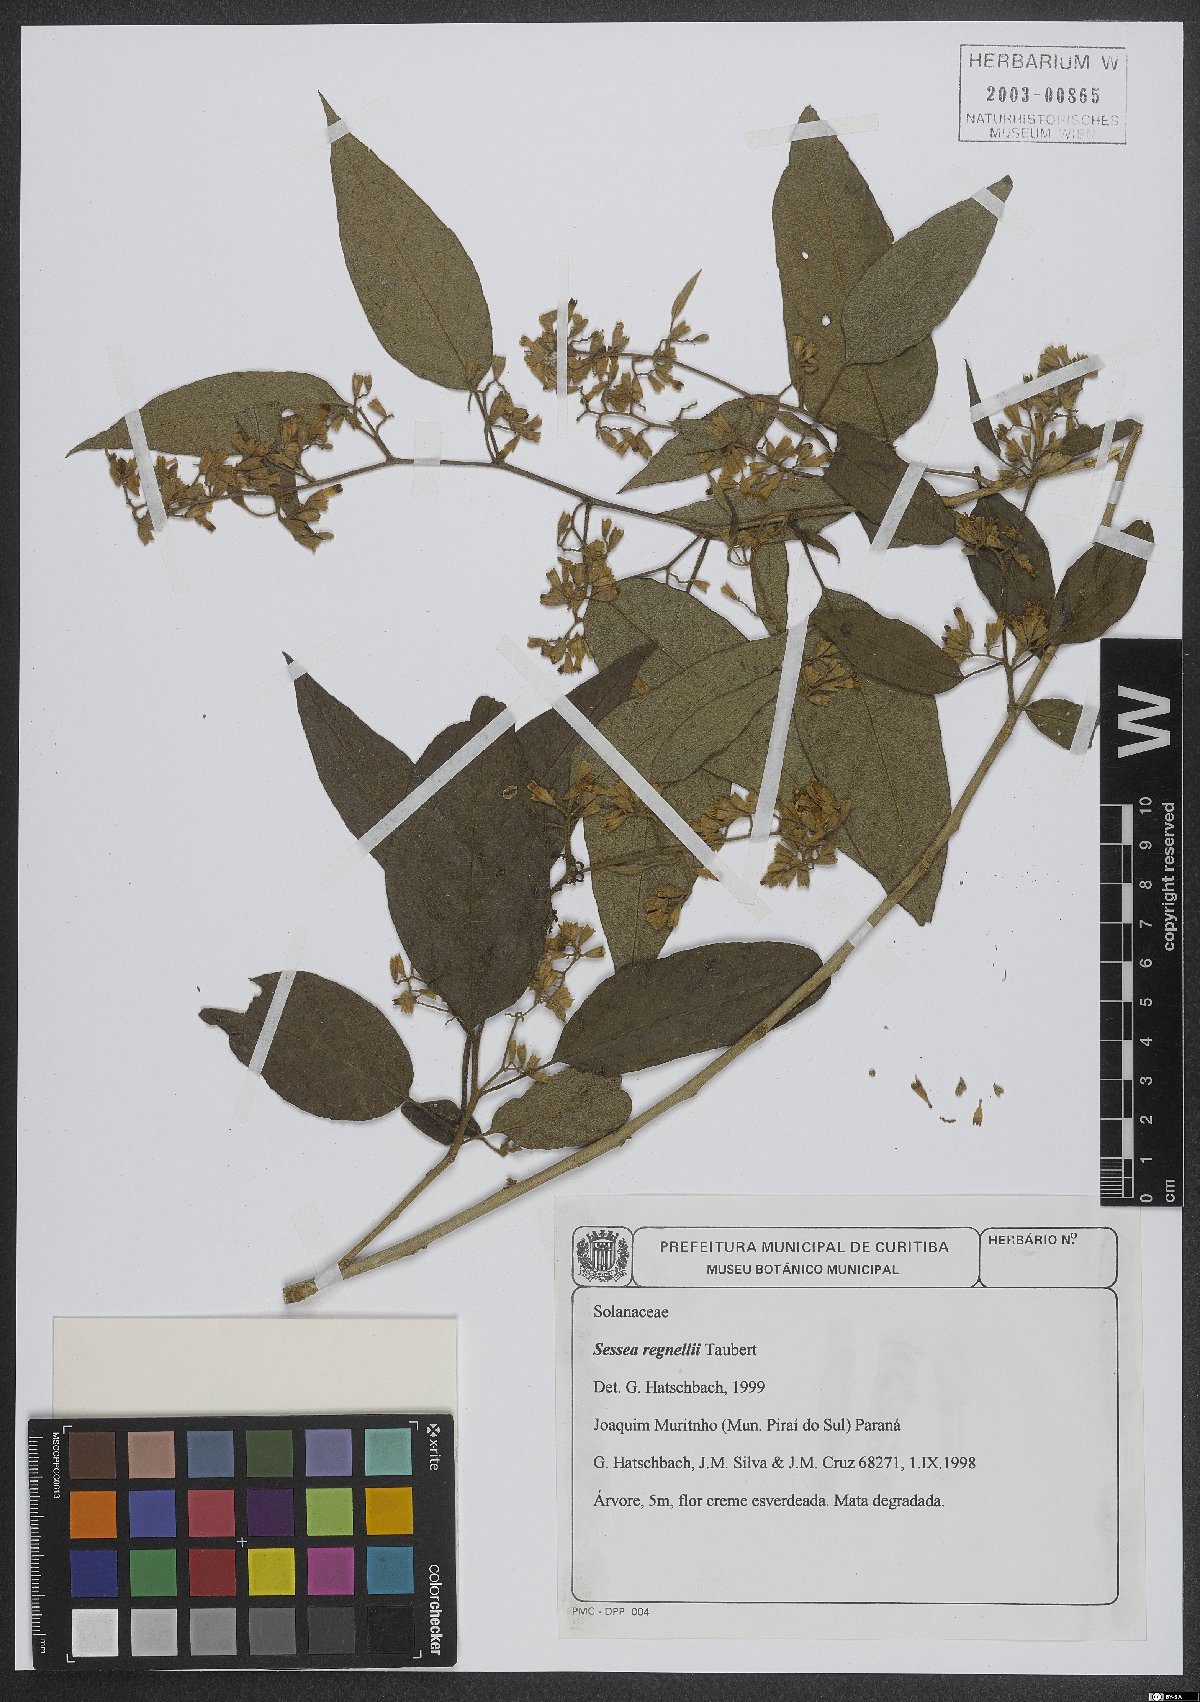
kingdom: Plantae
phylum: Tracheophyta
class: Magnoliopsida
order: Solanales
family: Solanaceae
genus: Cestrum
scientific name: Cestrum capsulare
